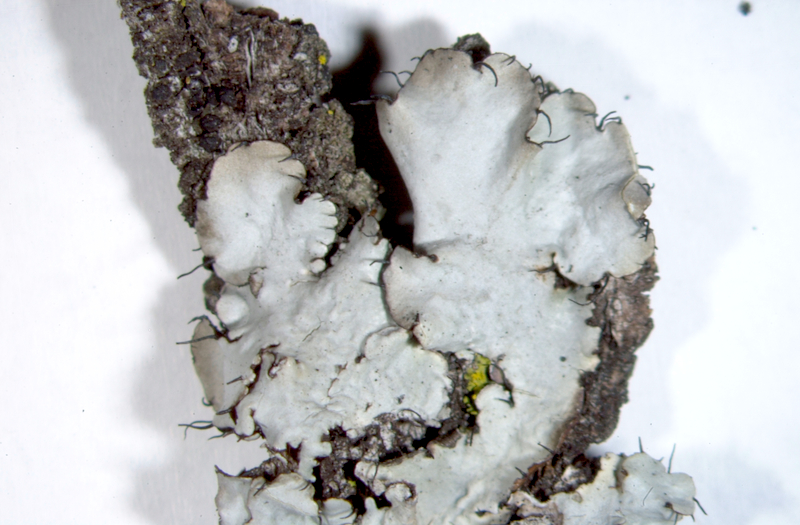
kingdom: Fungi
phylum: Ascomycota
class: Lecanoromycetes
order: Lecanorales
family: Parmeliaceae
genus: Parmotrema
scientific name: Parmotrema eciliatum
